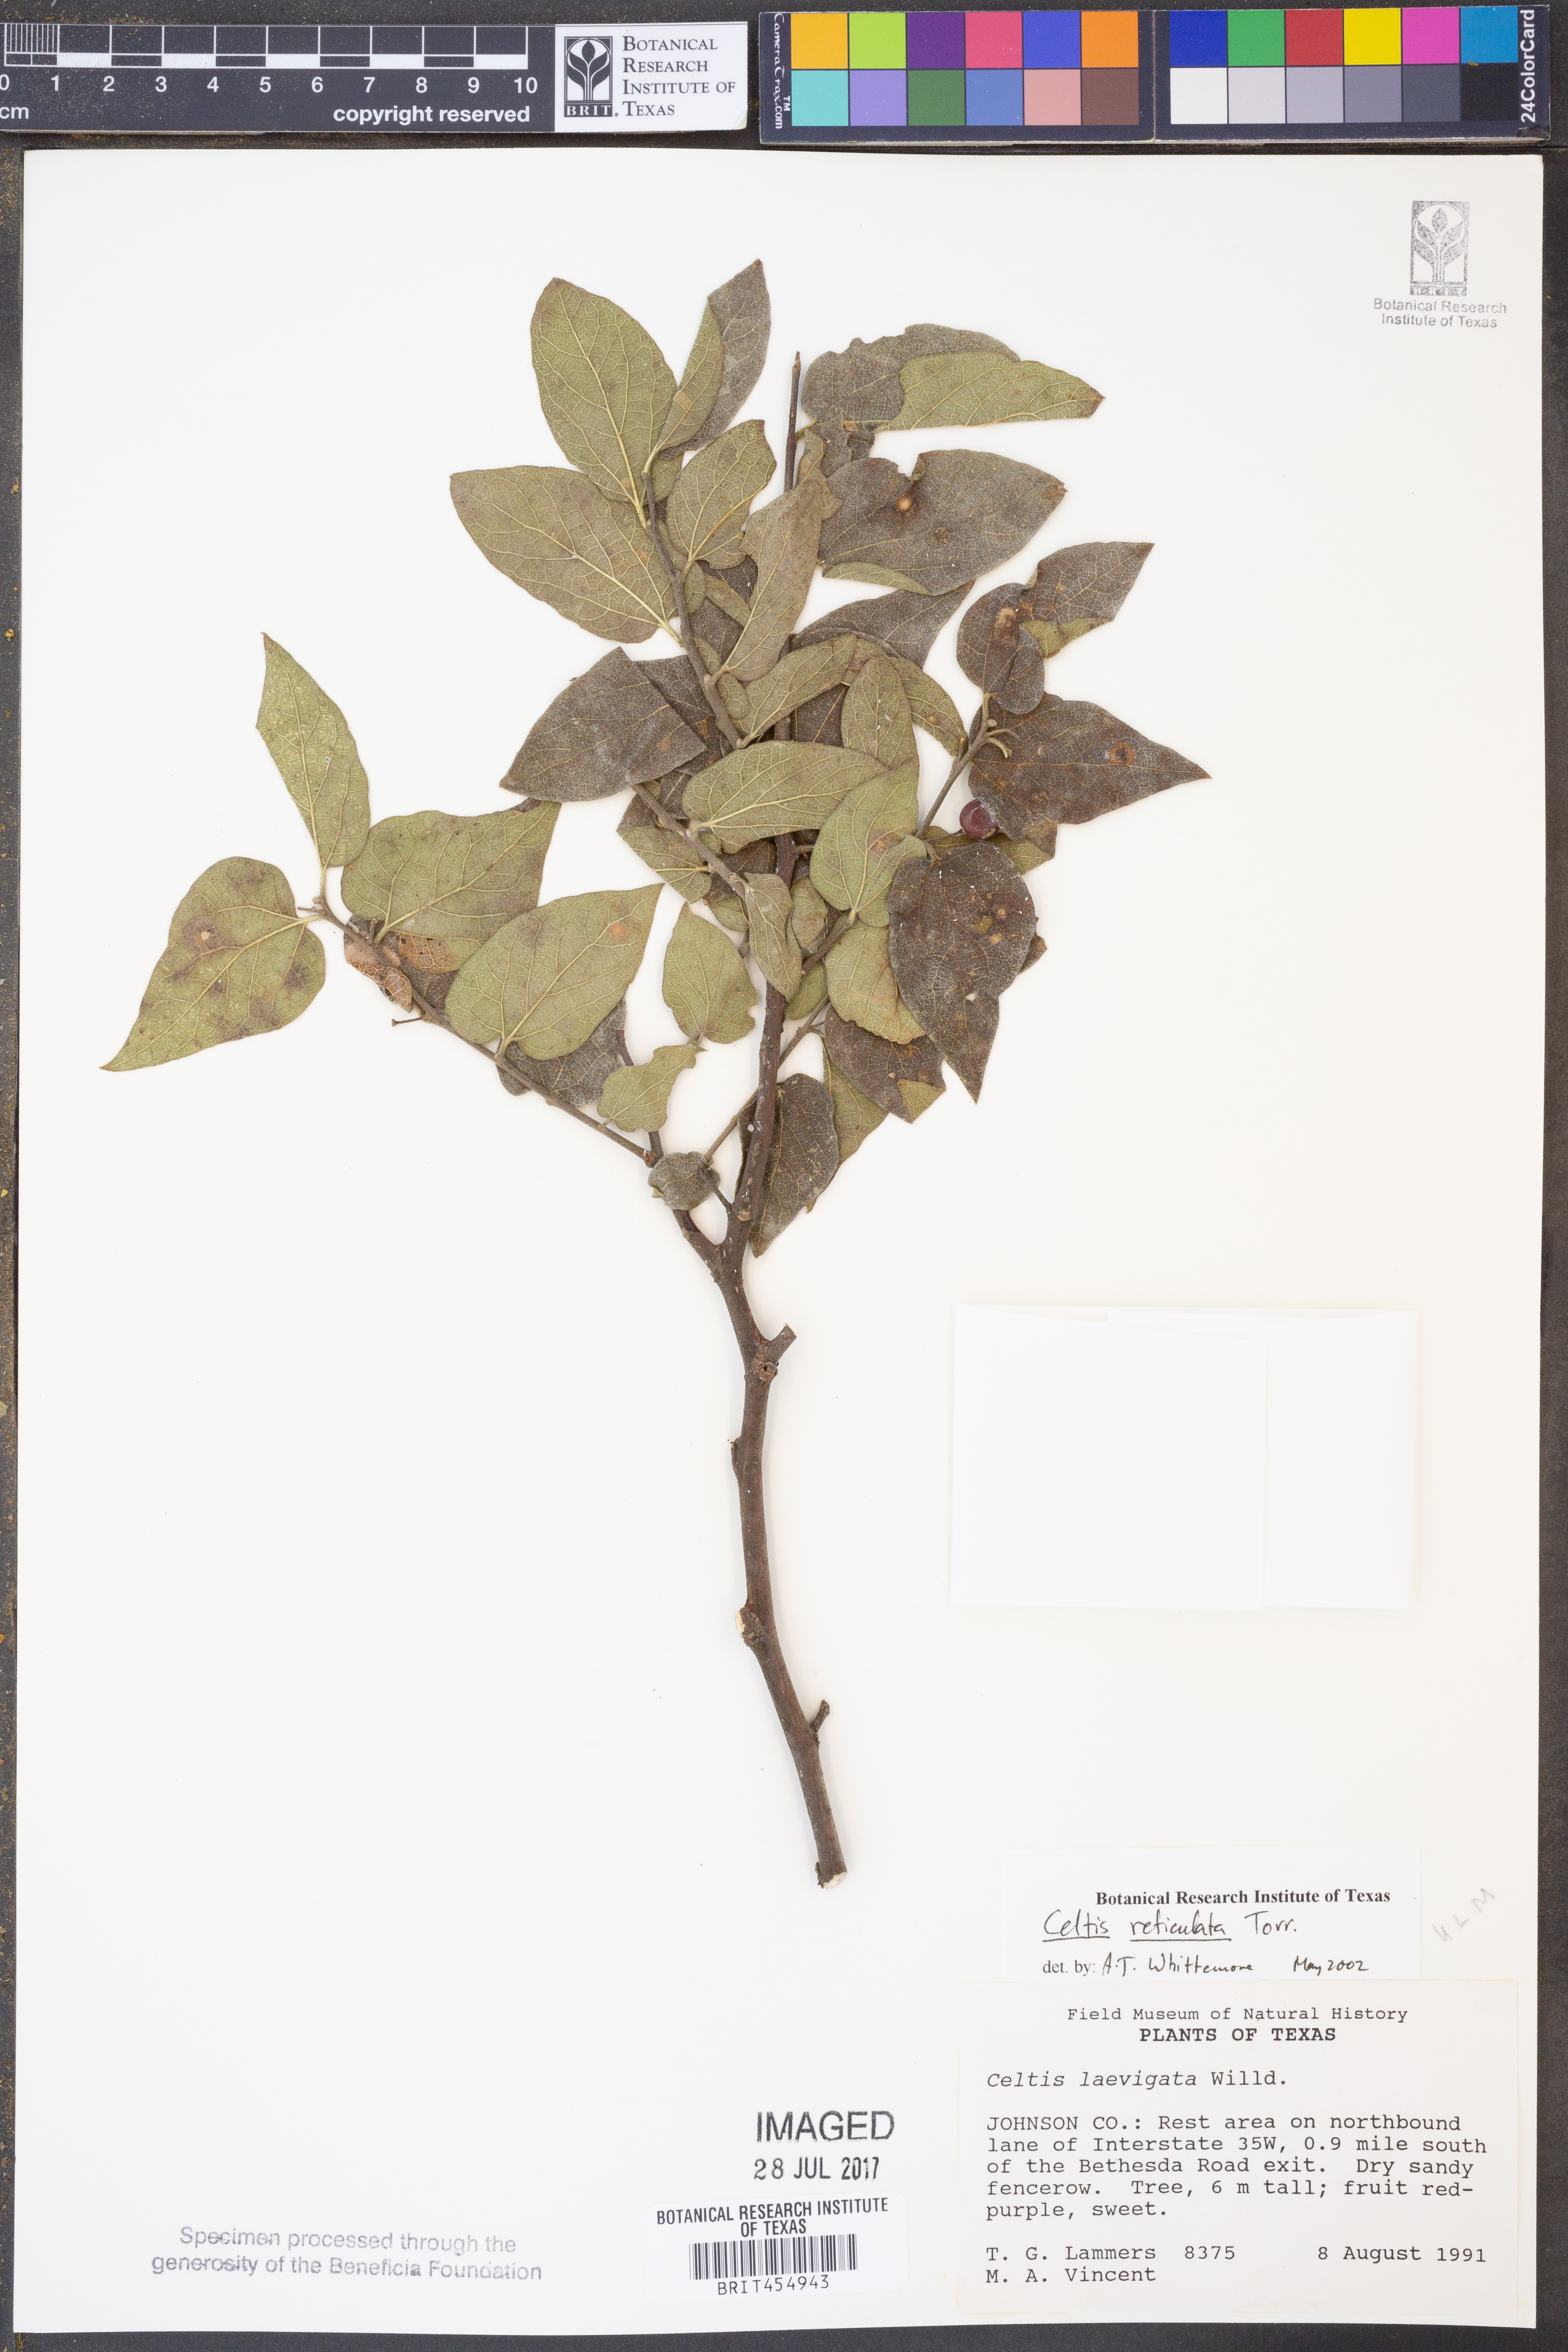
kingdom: Plantae
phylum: Tracheophyta
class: Magnoliopsida
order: Rosales
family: Cannabaceae
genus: Celtis
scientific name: Celtis reticulata
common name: Netleaf hackberry
